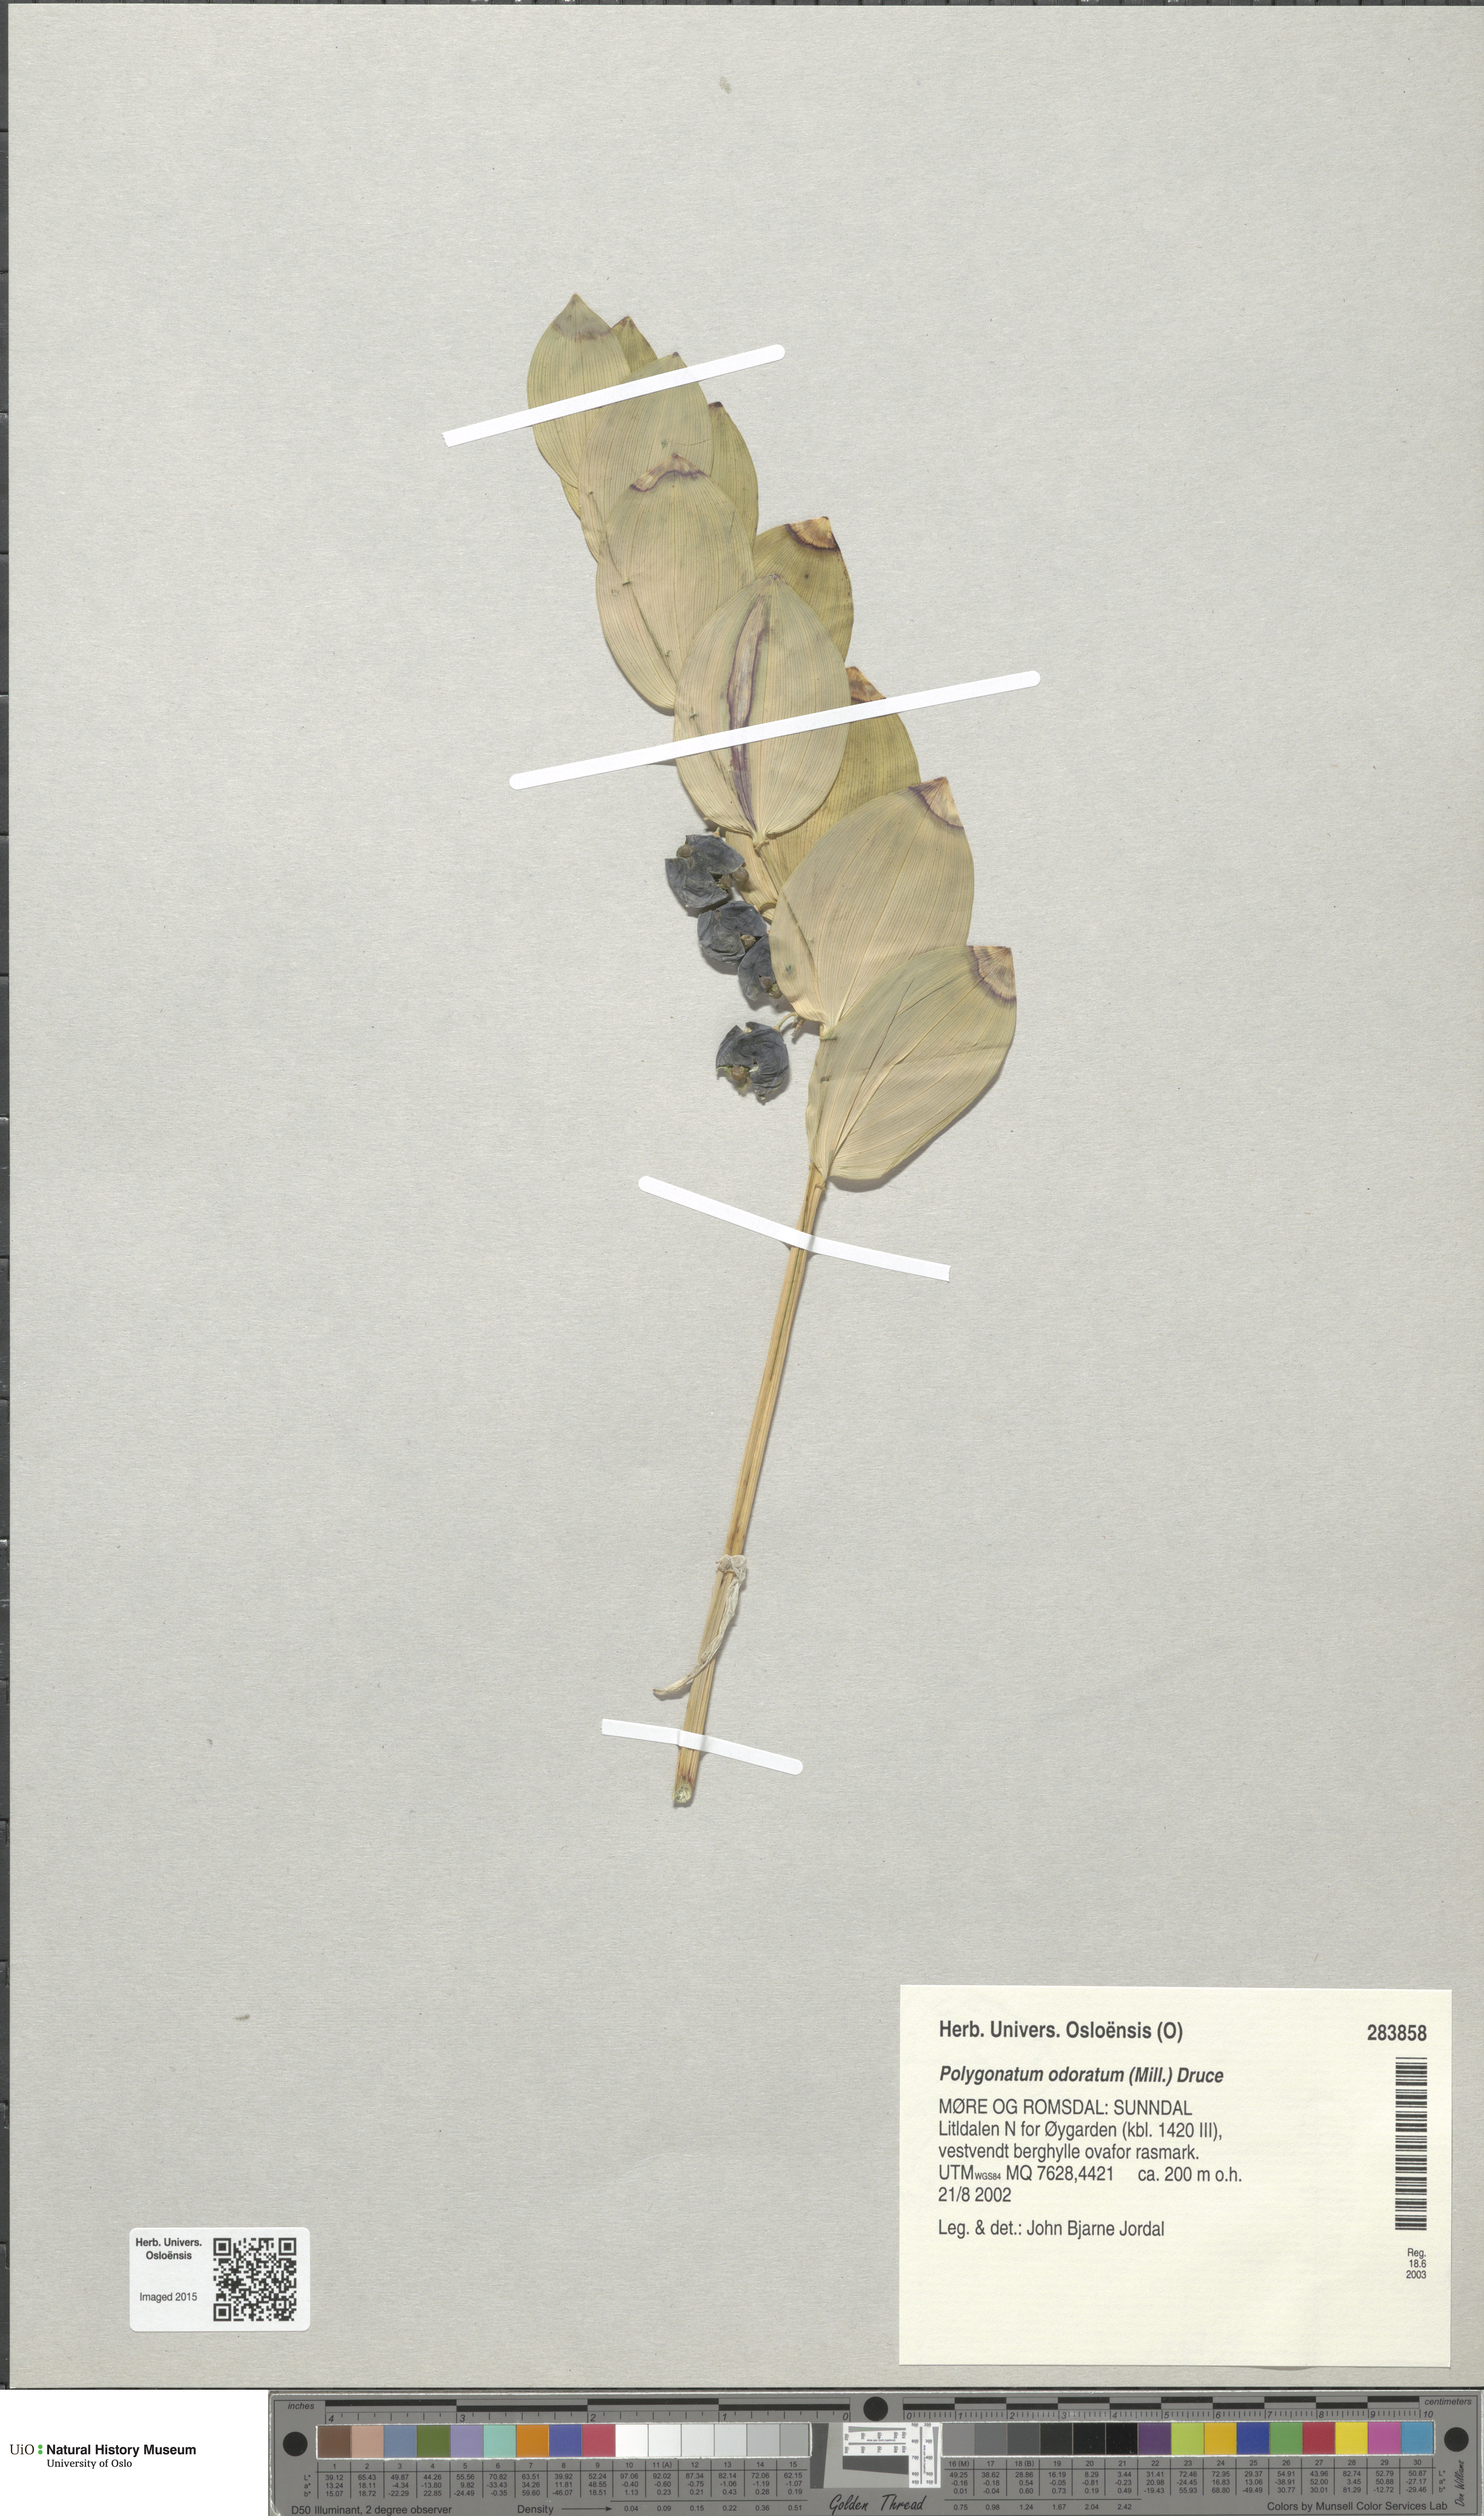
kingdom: Plantae
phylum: Tracheophyta
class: Liliopsida
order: Asparagales
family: Asparagaceae
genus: Polygonatum
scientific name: Polygonatum odoratum
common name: Angular solomon's-seal
